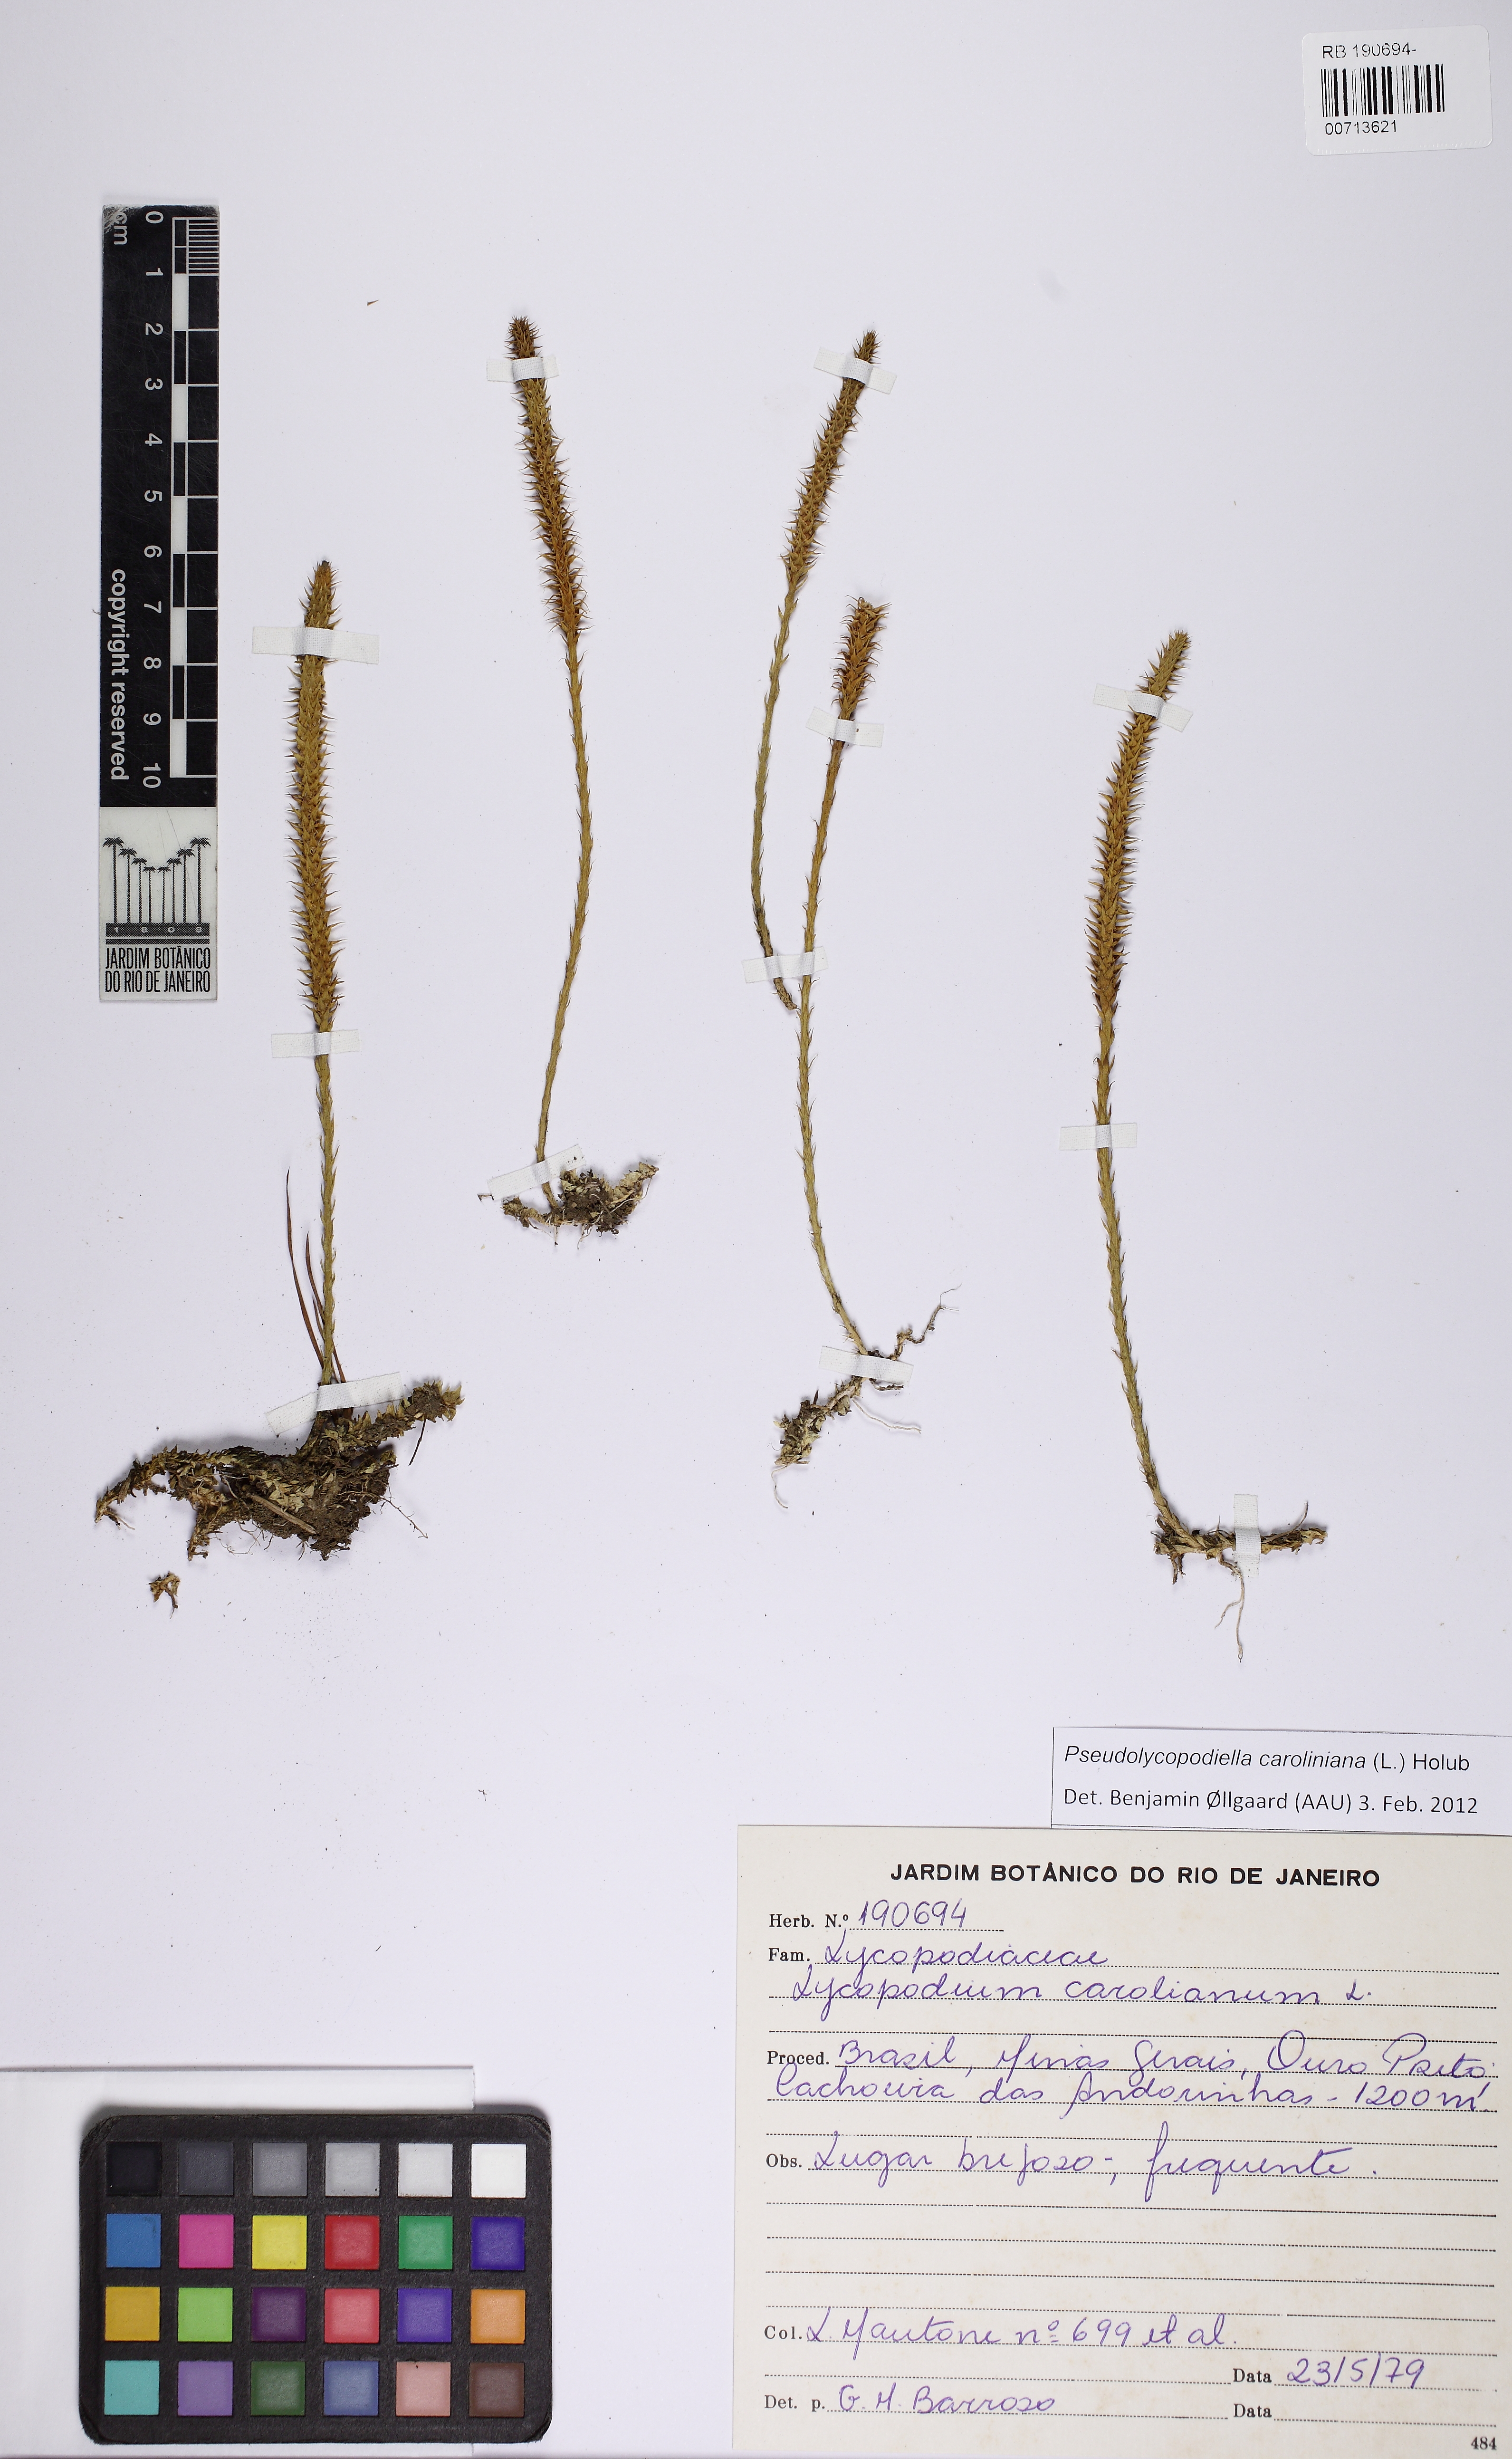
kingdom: Plantae
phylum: Tracheophyta
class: Lycopodiopsida
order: Lycopodiales
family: Lycopodiaceae
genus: Pseudolycopodiella
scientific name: Pseudolycopodiella caroliniana
